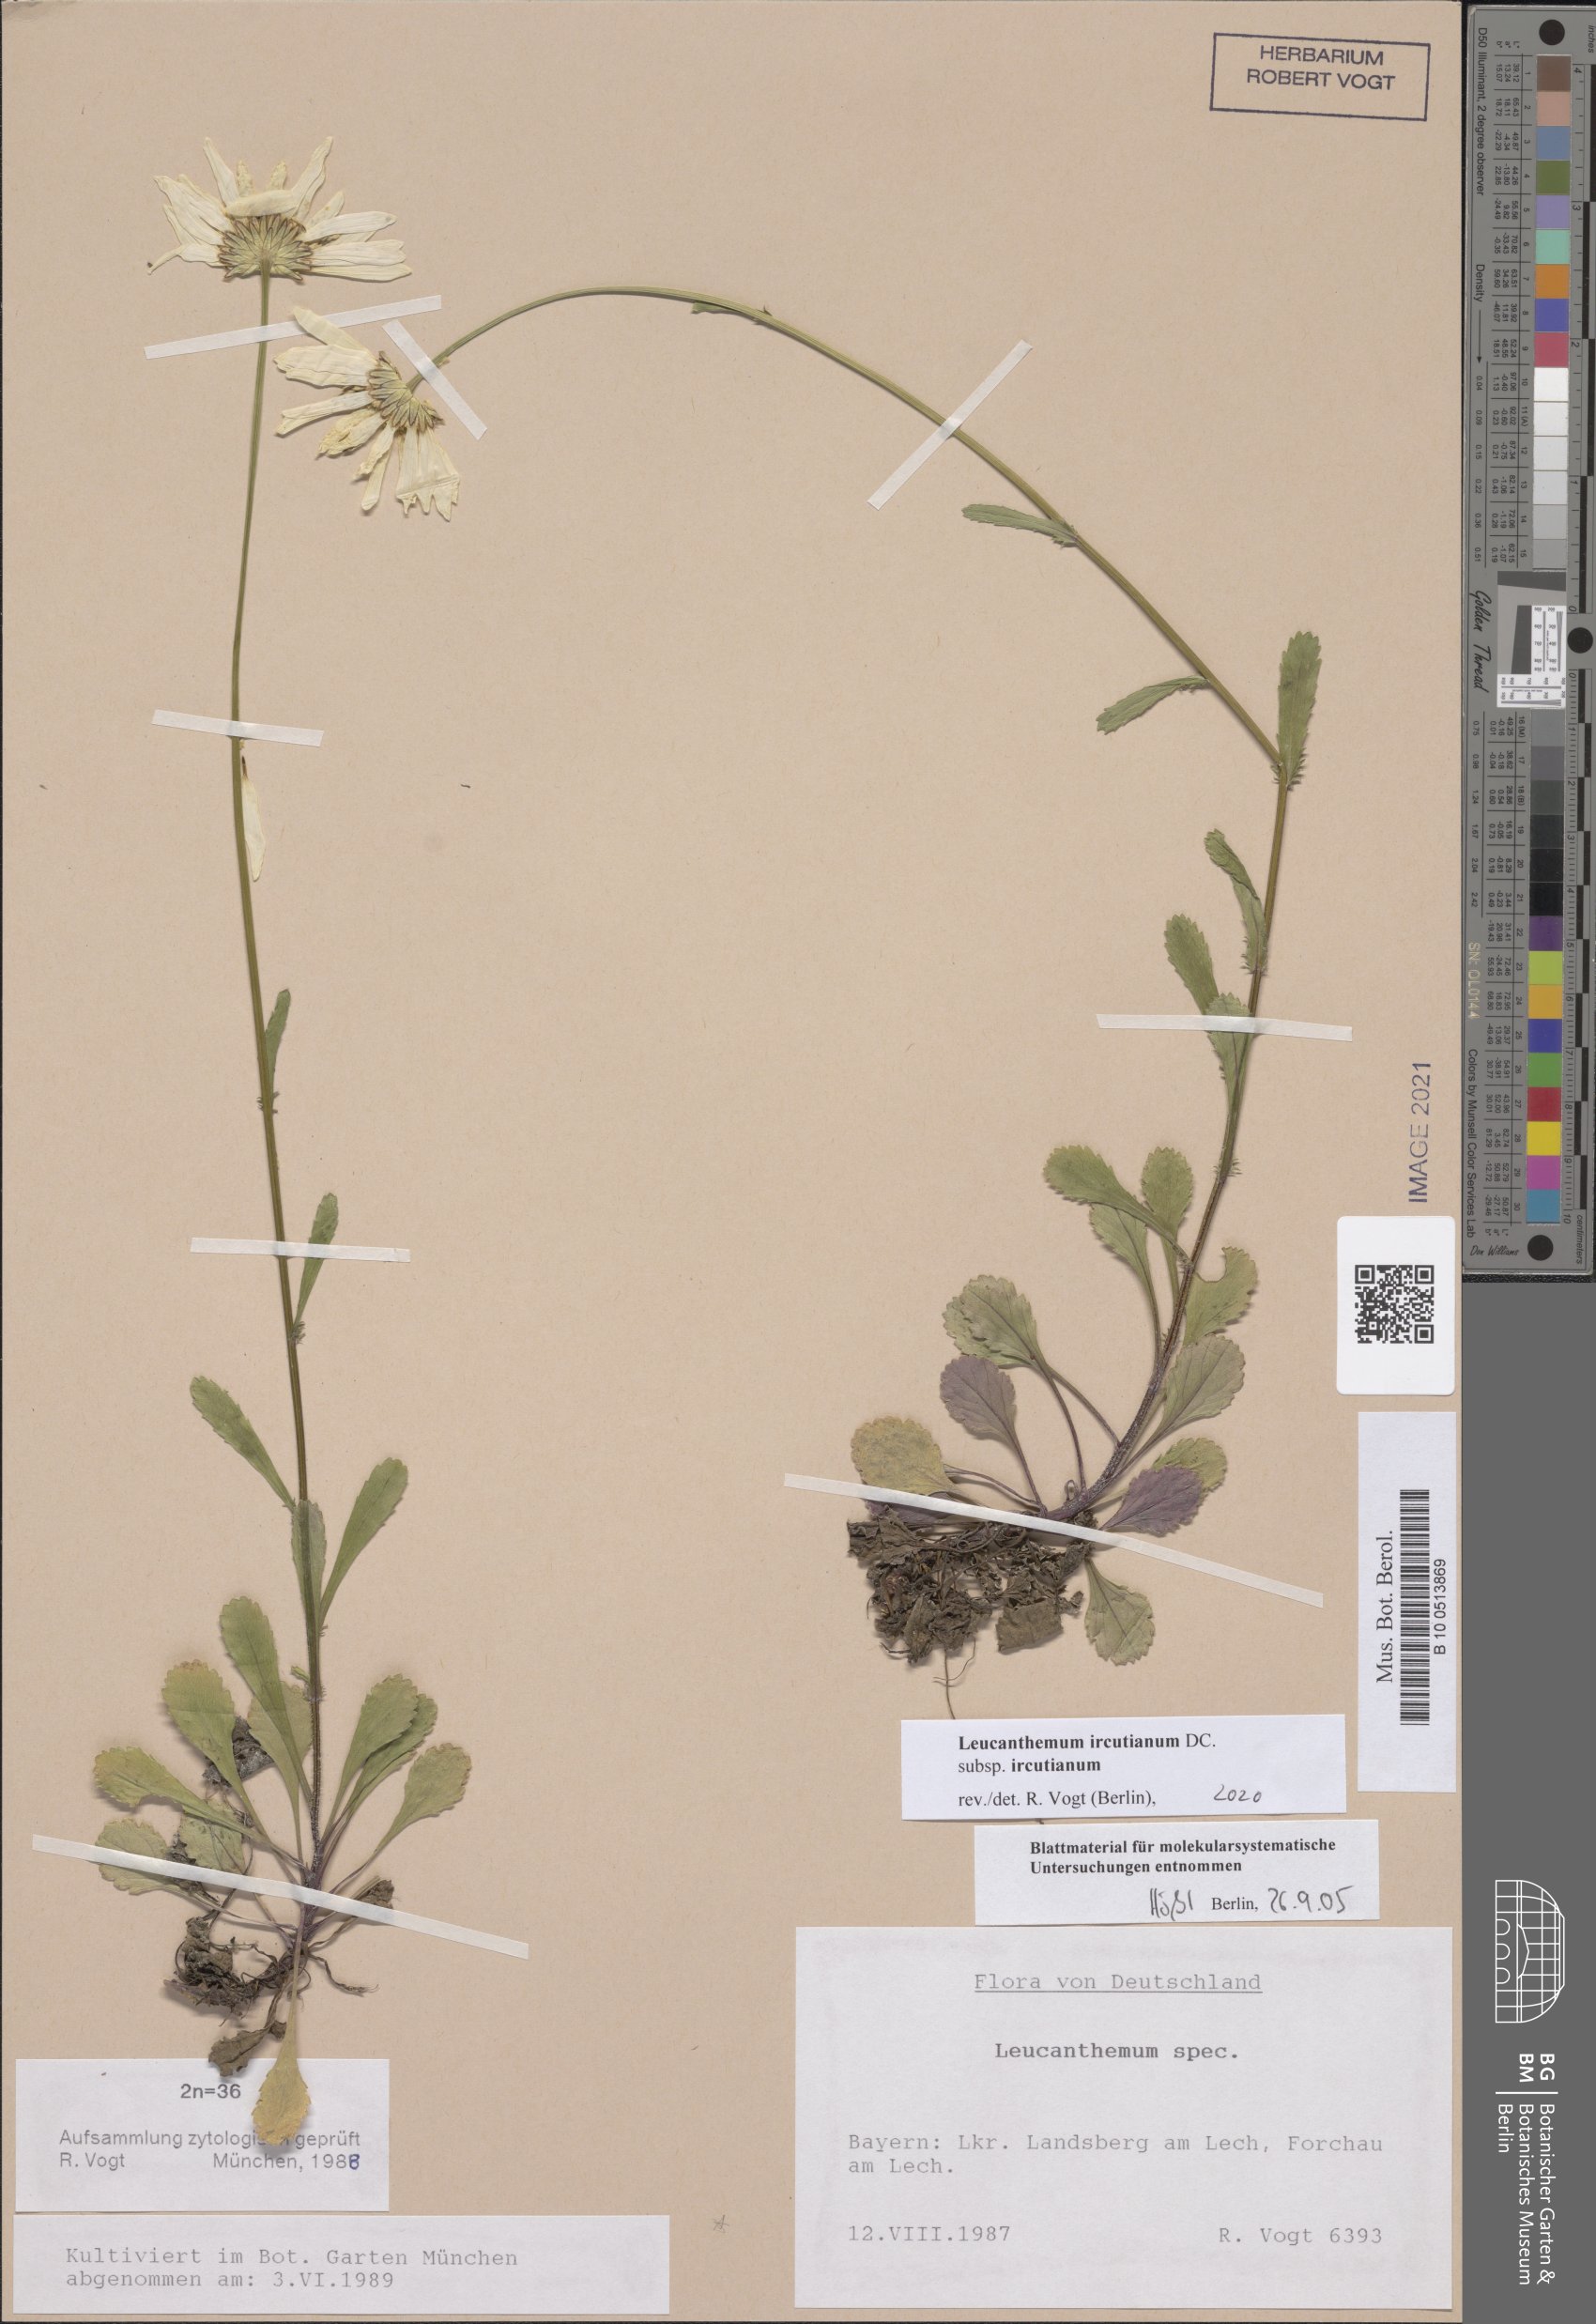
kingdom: Plantae
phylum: Tracheophyta
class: Magnoliopsida
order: Asterales
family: Asteraceae
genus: Leucanthemum
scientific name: Leucanthemum ircutianum
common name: Daisy
